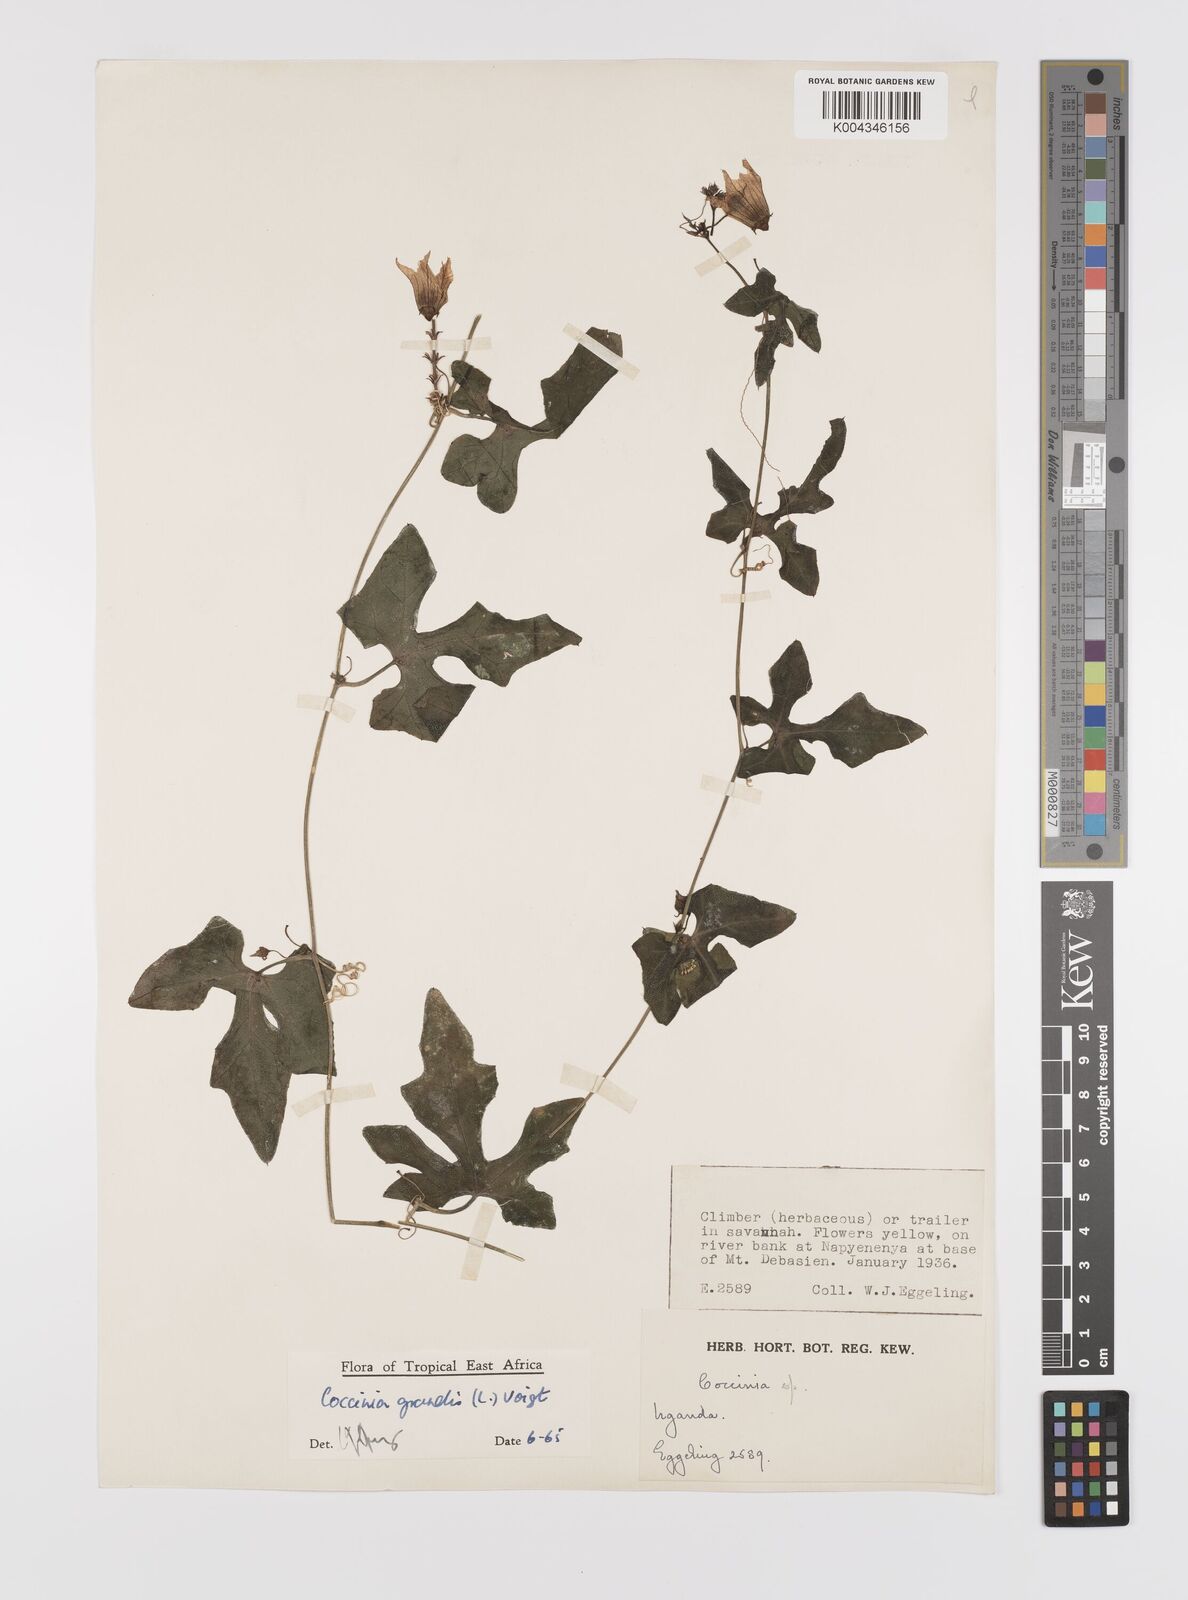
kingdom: Plantae
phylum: Tracheophyta
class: Magnoliopsida
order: Cucurbitales
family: Cucurbitaceae
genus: Coccinia
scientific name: Coccinia grandis
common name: Ivy gourd
